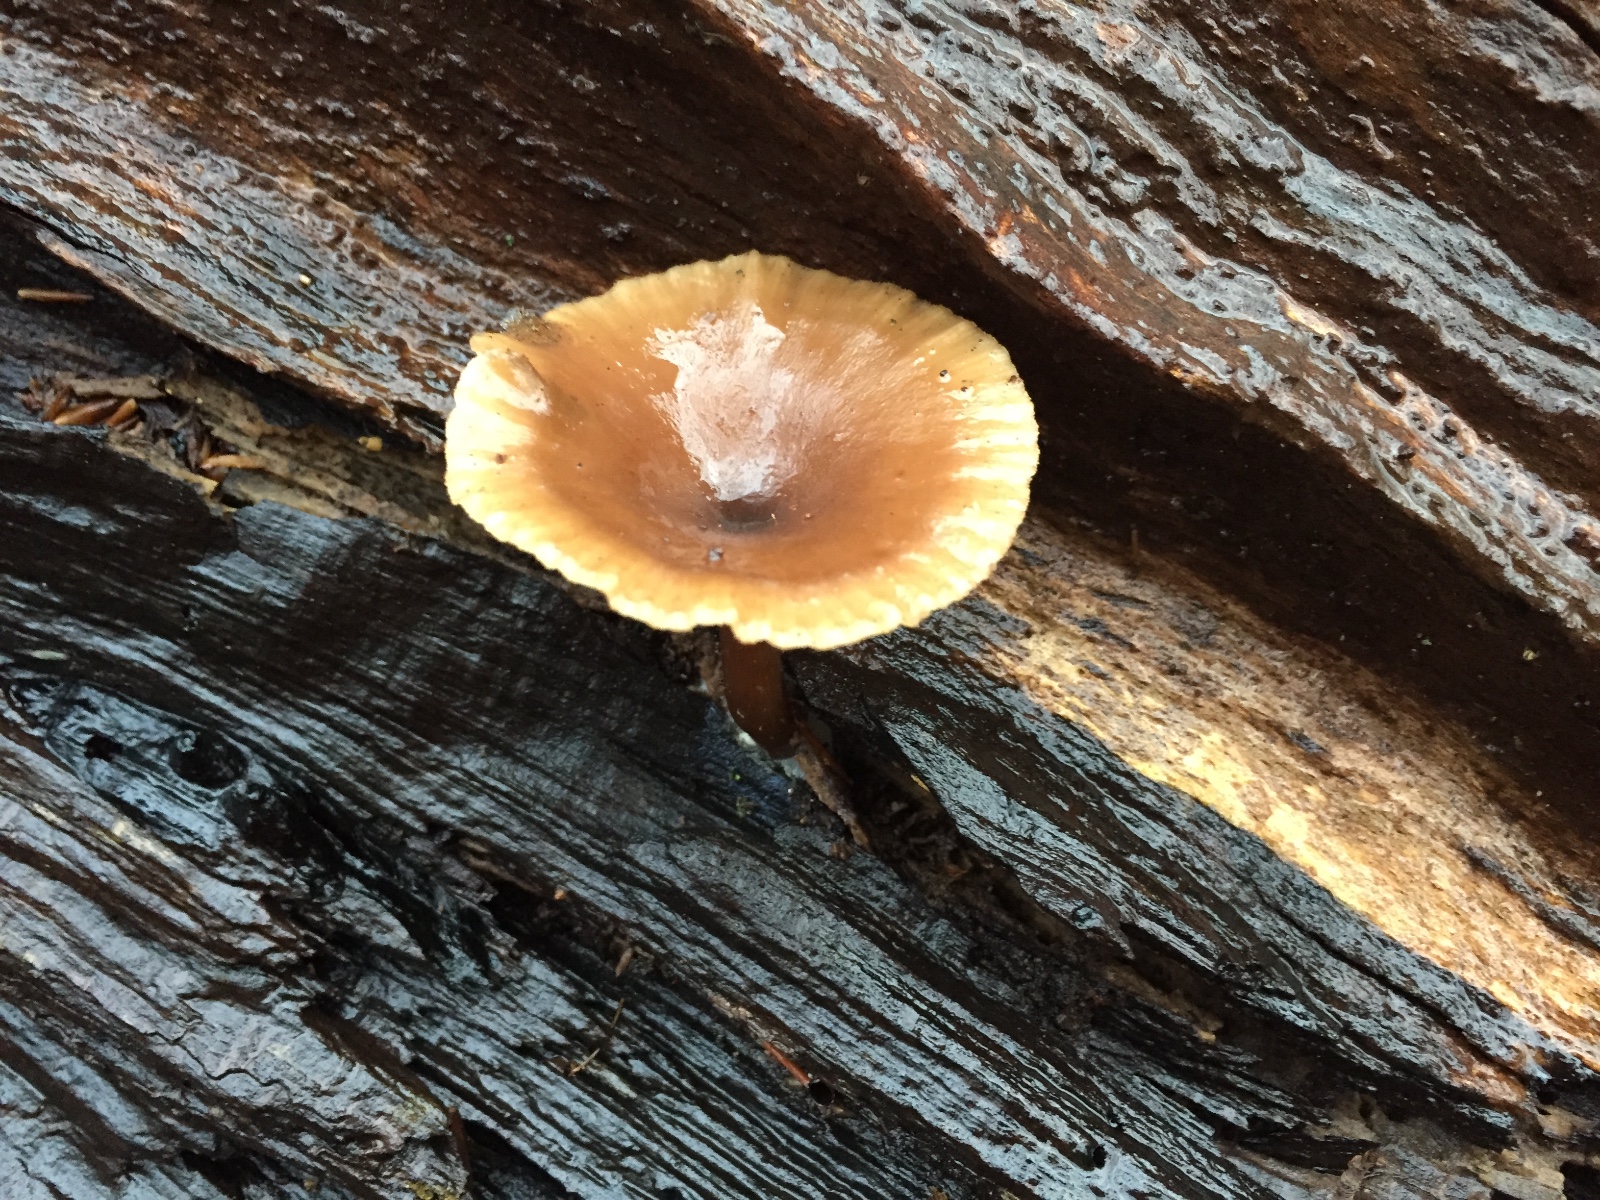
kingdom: Fungi
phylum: Basidiomycota
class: Agaricomycetes
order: Agaricales
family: Pseudoclitocybaceae
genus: Pseudoclitocybe
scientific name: Pseudoclitocybe cyathiformis
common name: almindelig bægertragthat
